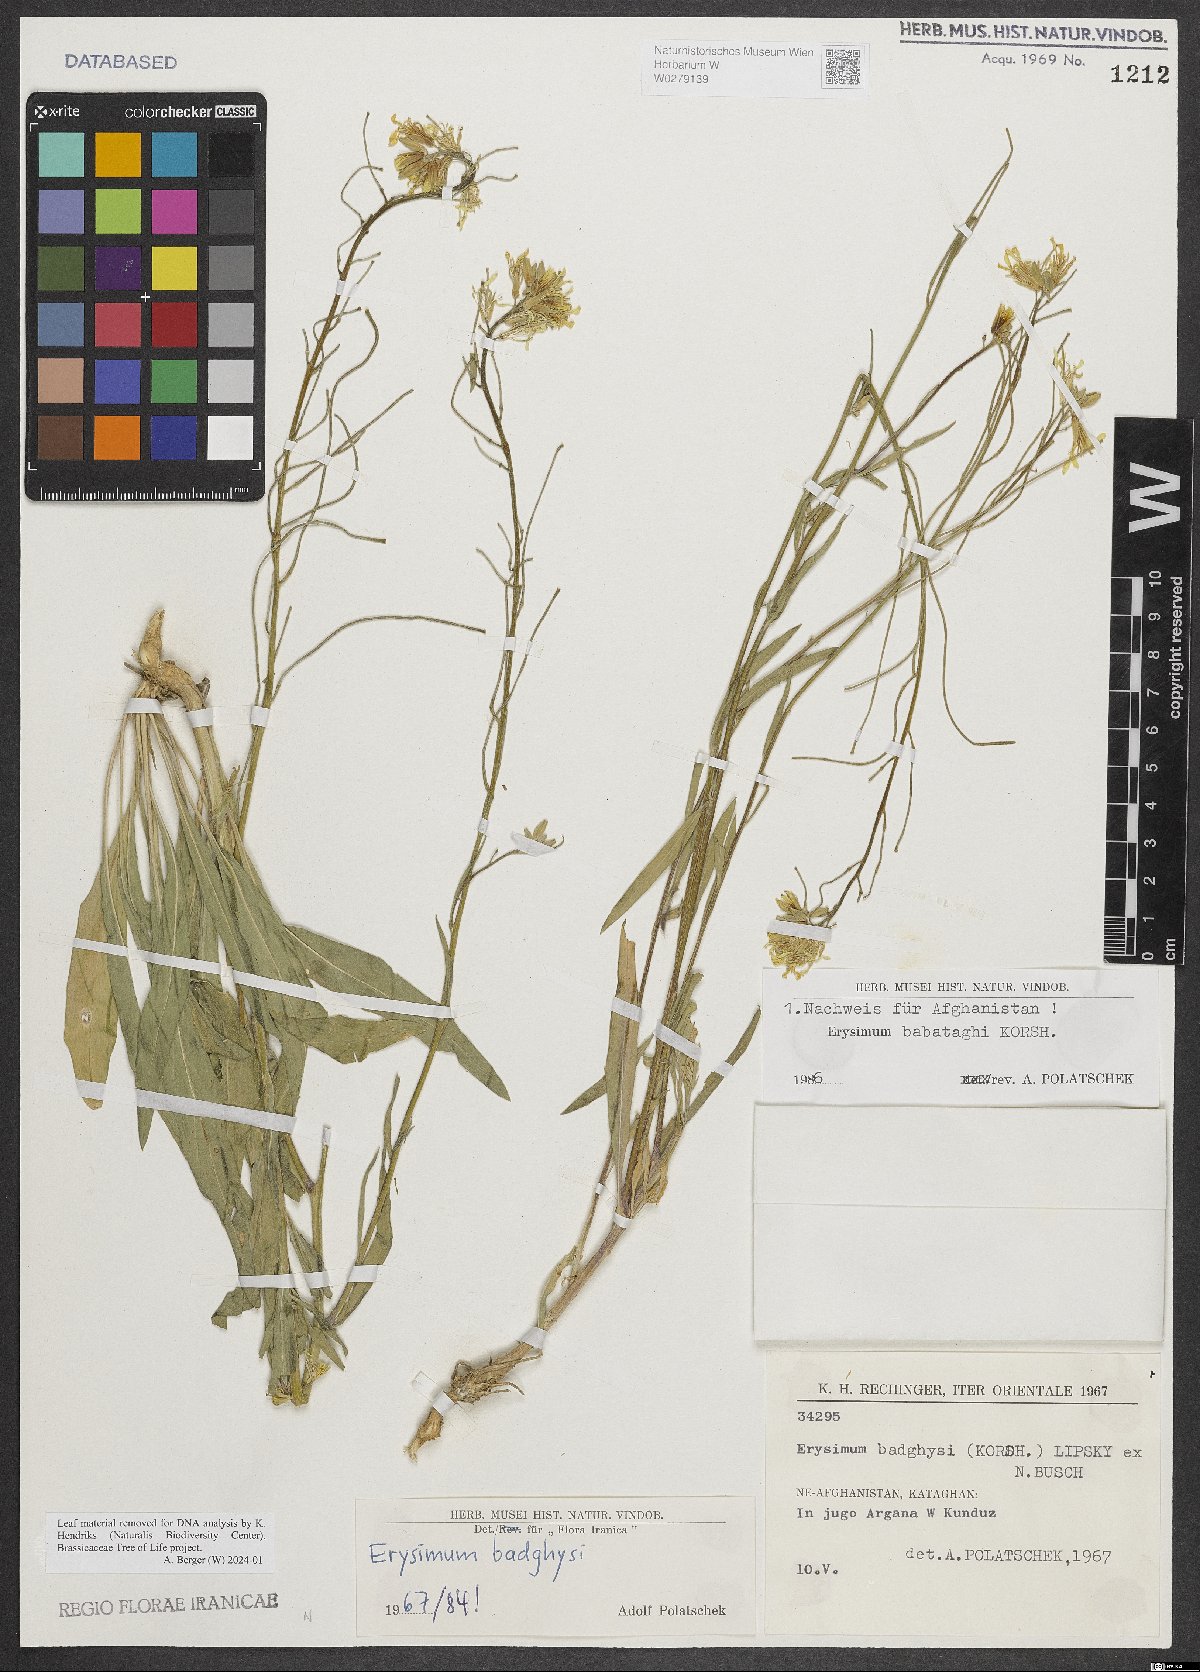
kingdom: Plantae
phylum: Tracheophyta
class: Magnoliopsida
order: Brassicales
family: Brassicaceae
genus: Erysimum
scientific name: Erysimum babataghi
